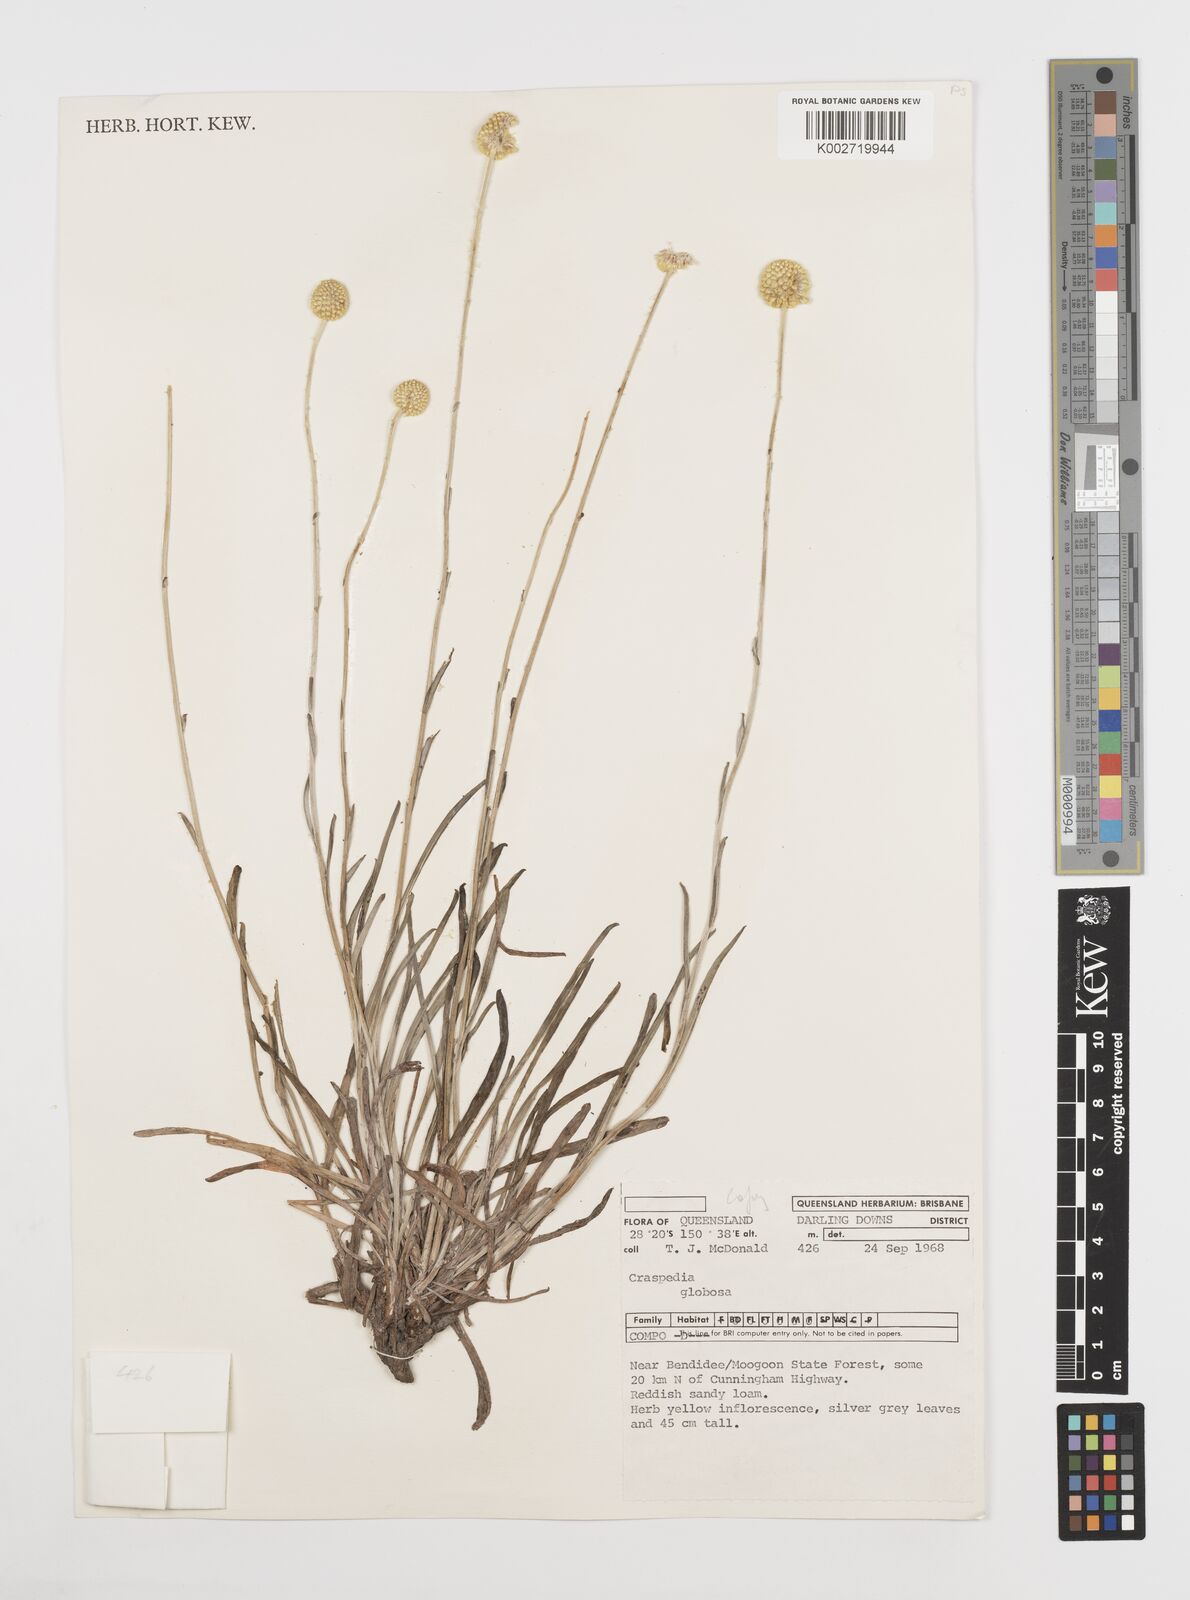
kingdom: Plantae
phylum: Tracheophyta
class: Magnoliopsida
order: Asterales
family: Asteraceae
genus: Pycnosorus
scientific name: Pycnosorus globosus
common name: Drumsticks
